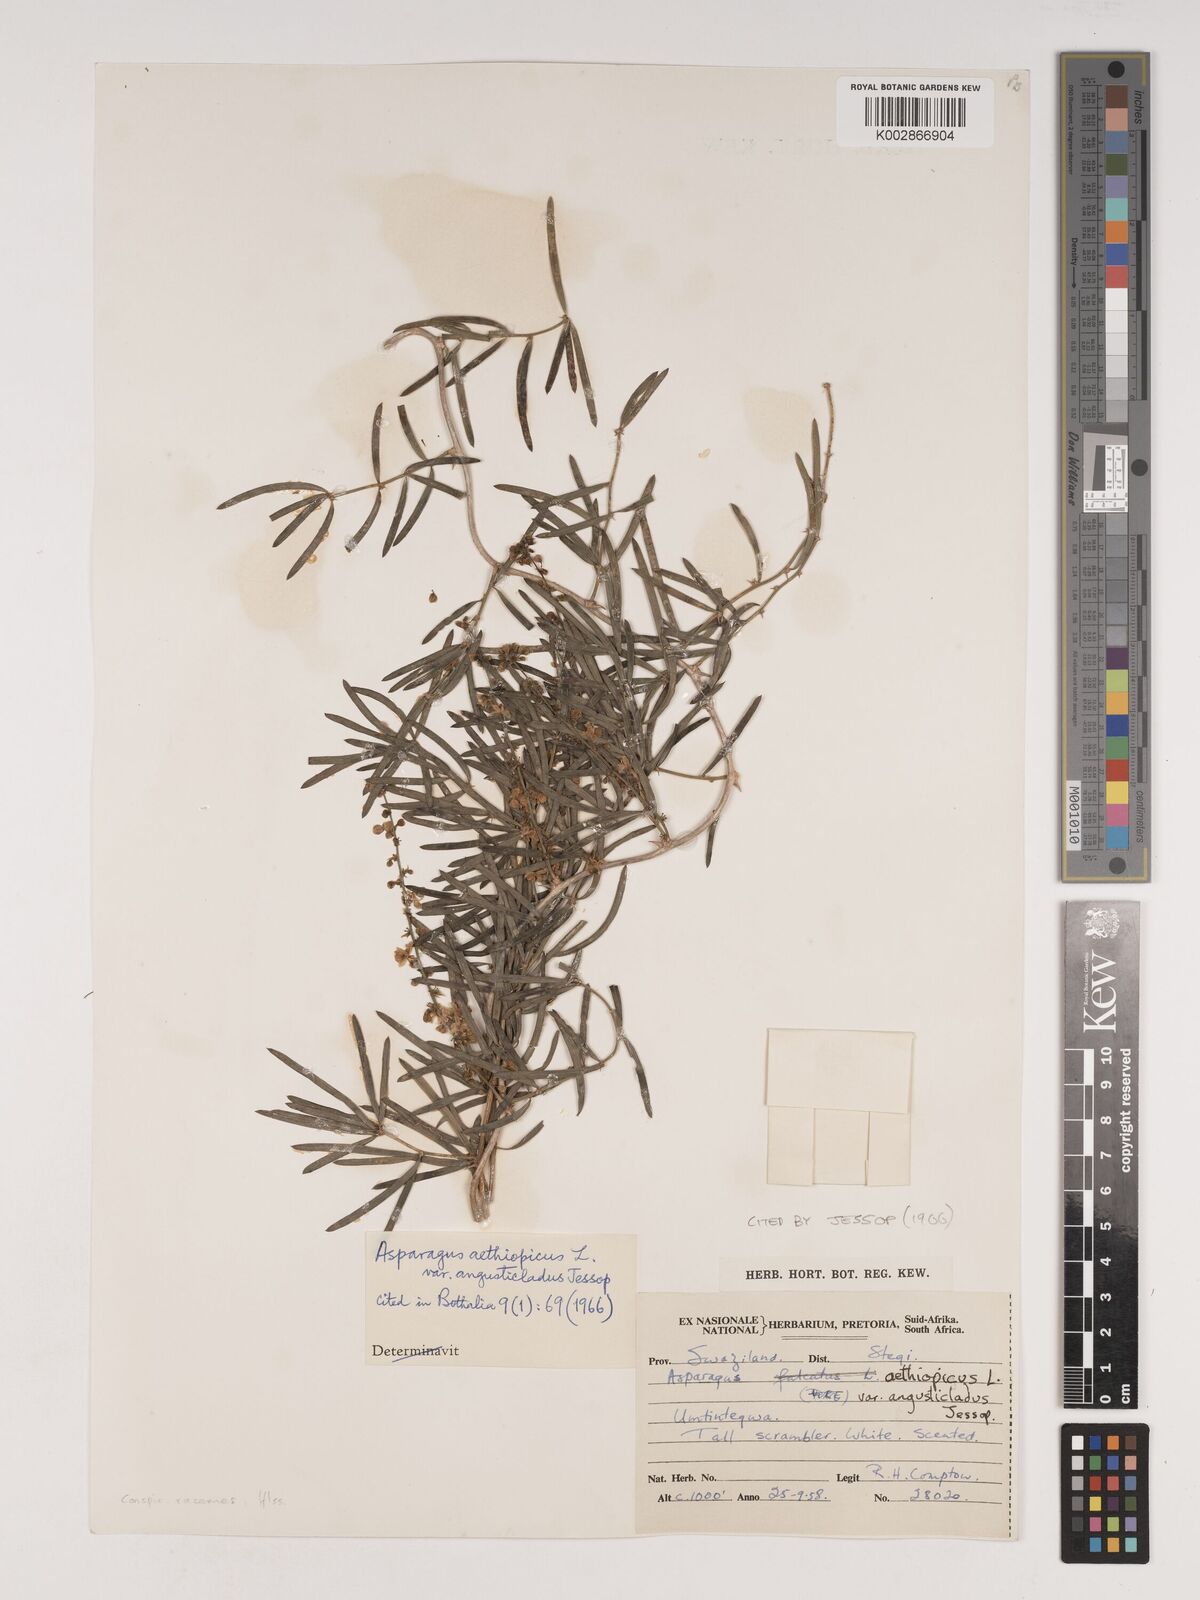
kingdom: Plantae
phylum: Tracheophyta
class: Liliopsida
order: Asparagales
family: Asparagaceae
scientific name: Asparagaceae
